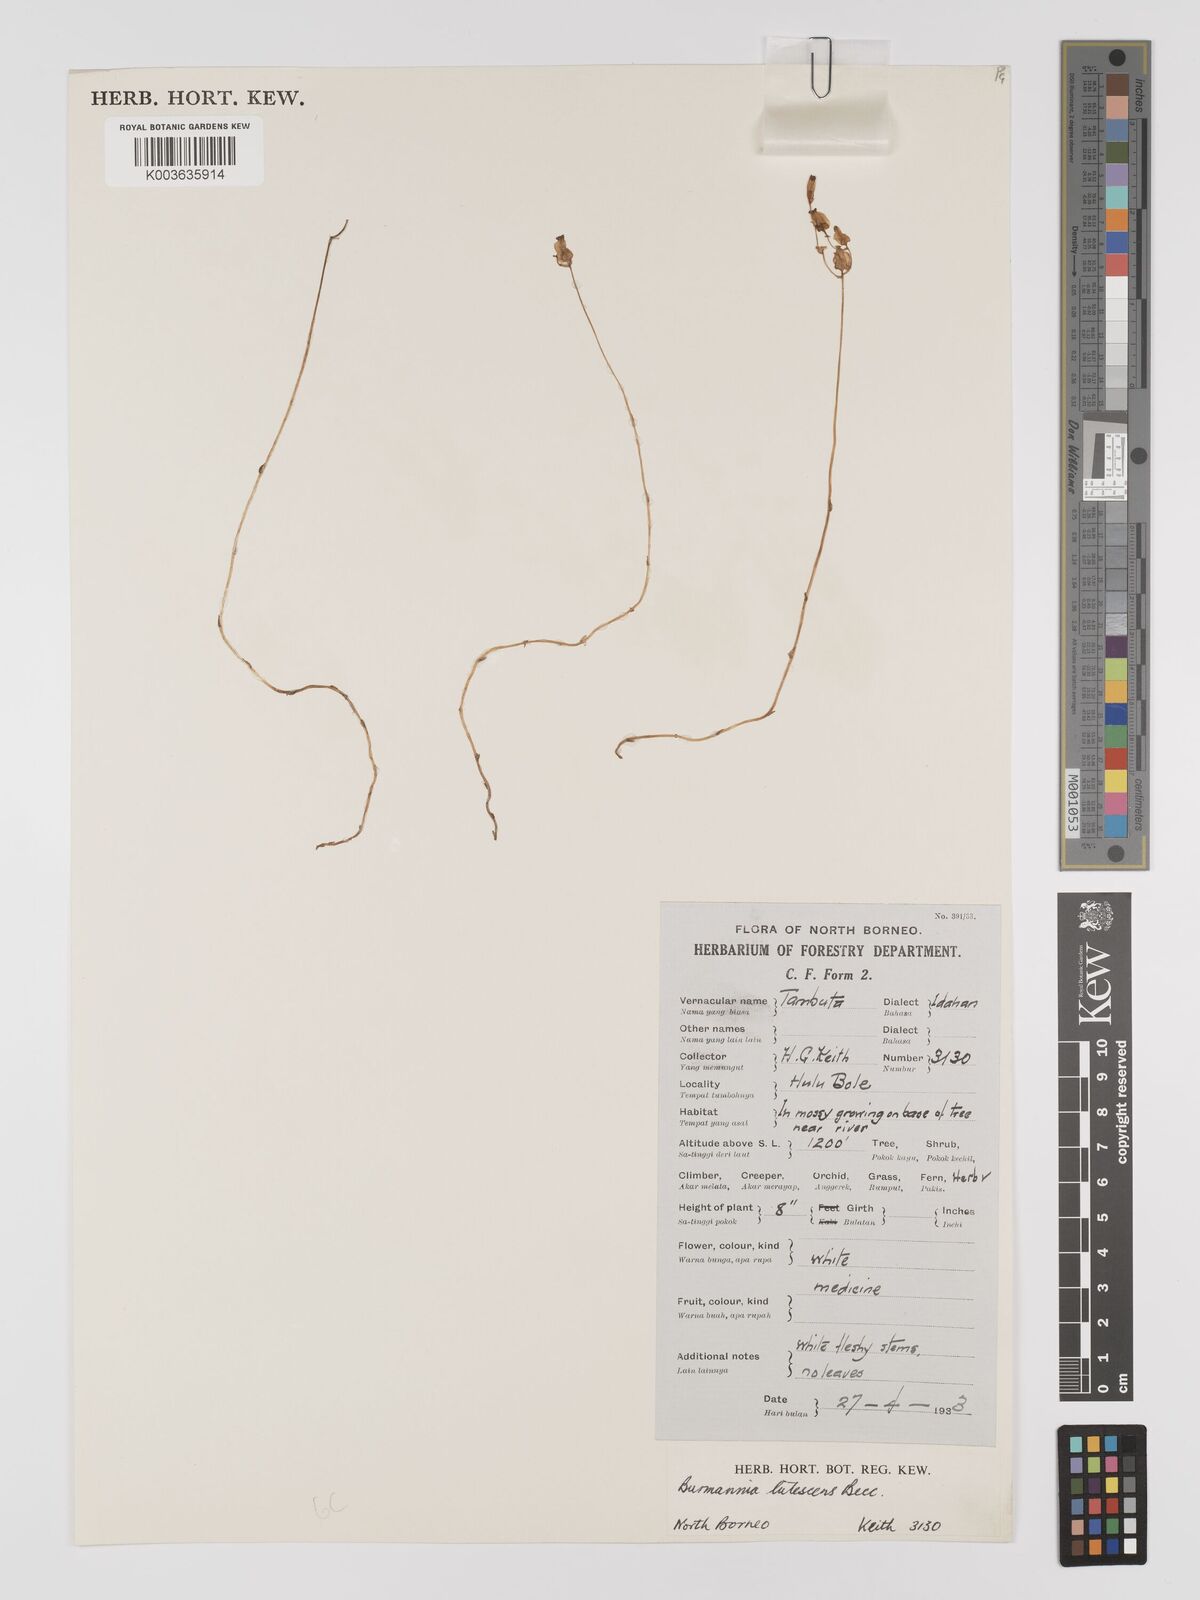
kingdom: Plantae
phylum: Tracheophyta
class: Liliopsida
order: Dioscoreales
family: Burmanniaceae
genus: Burmannia
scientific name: Burmannia lutescens
